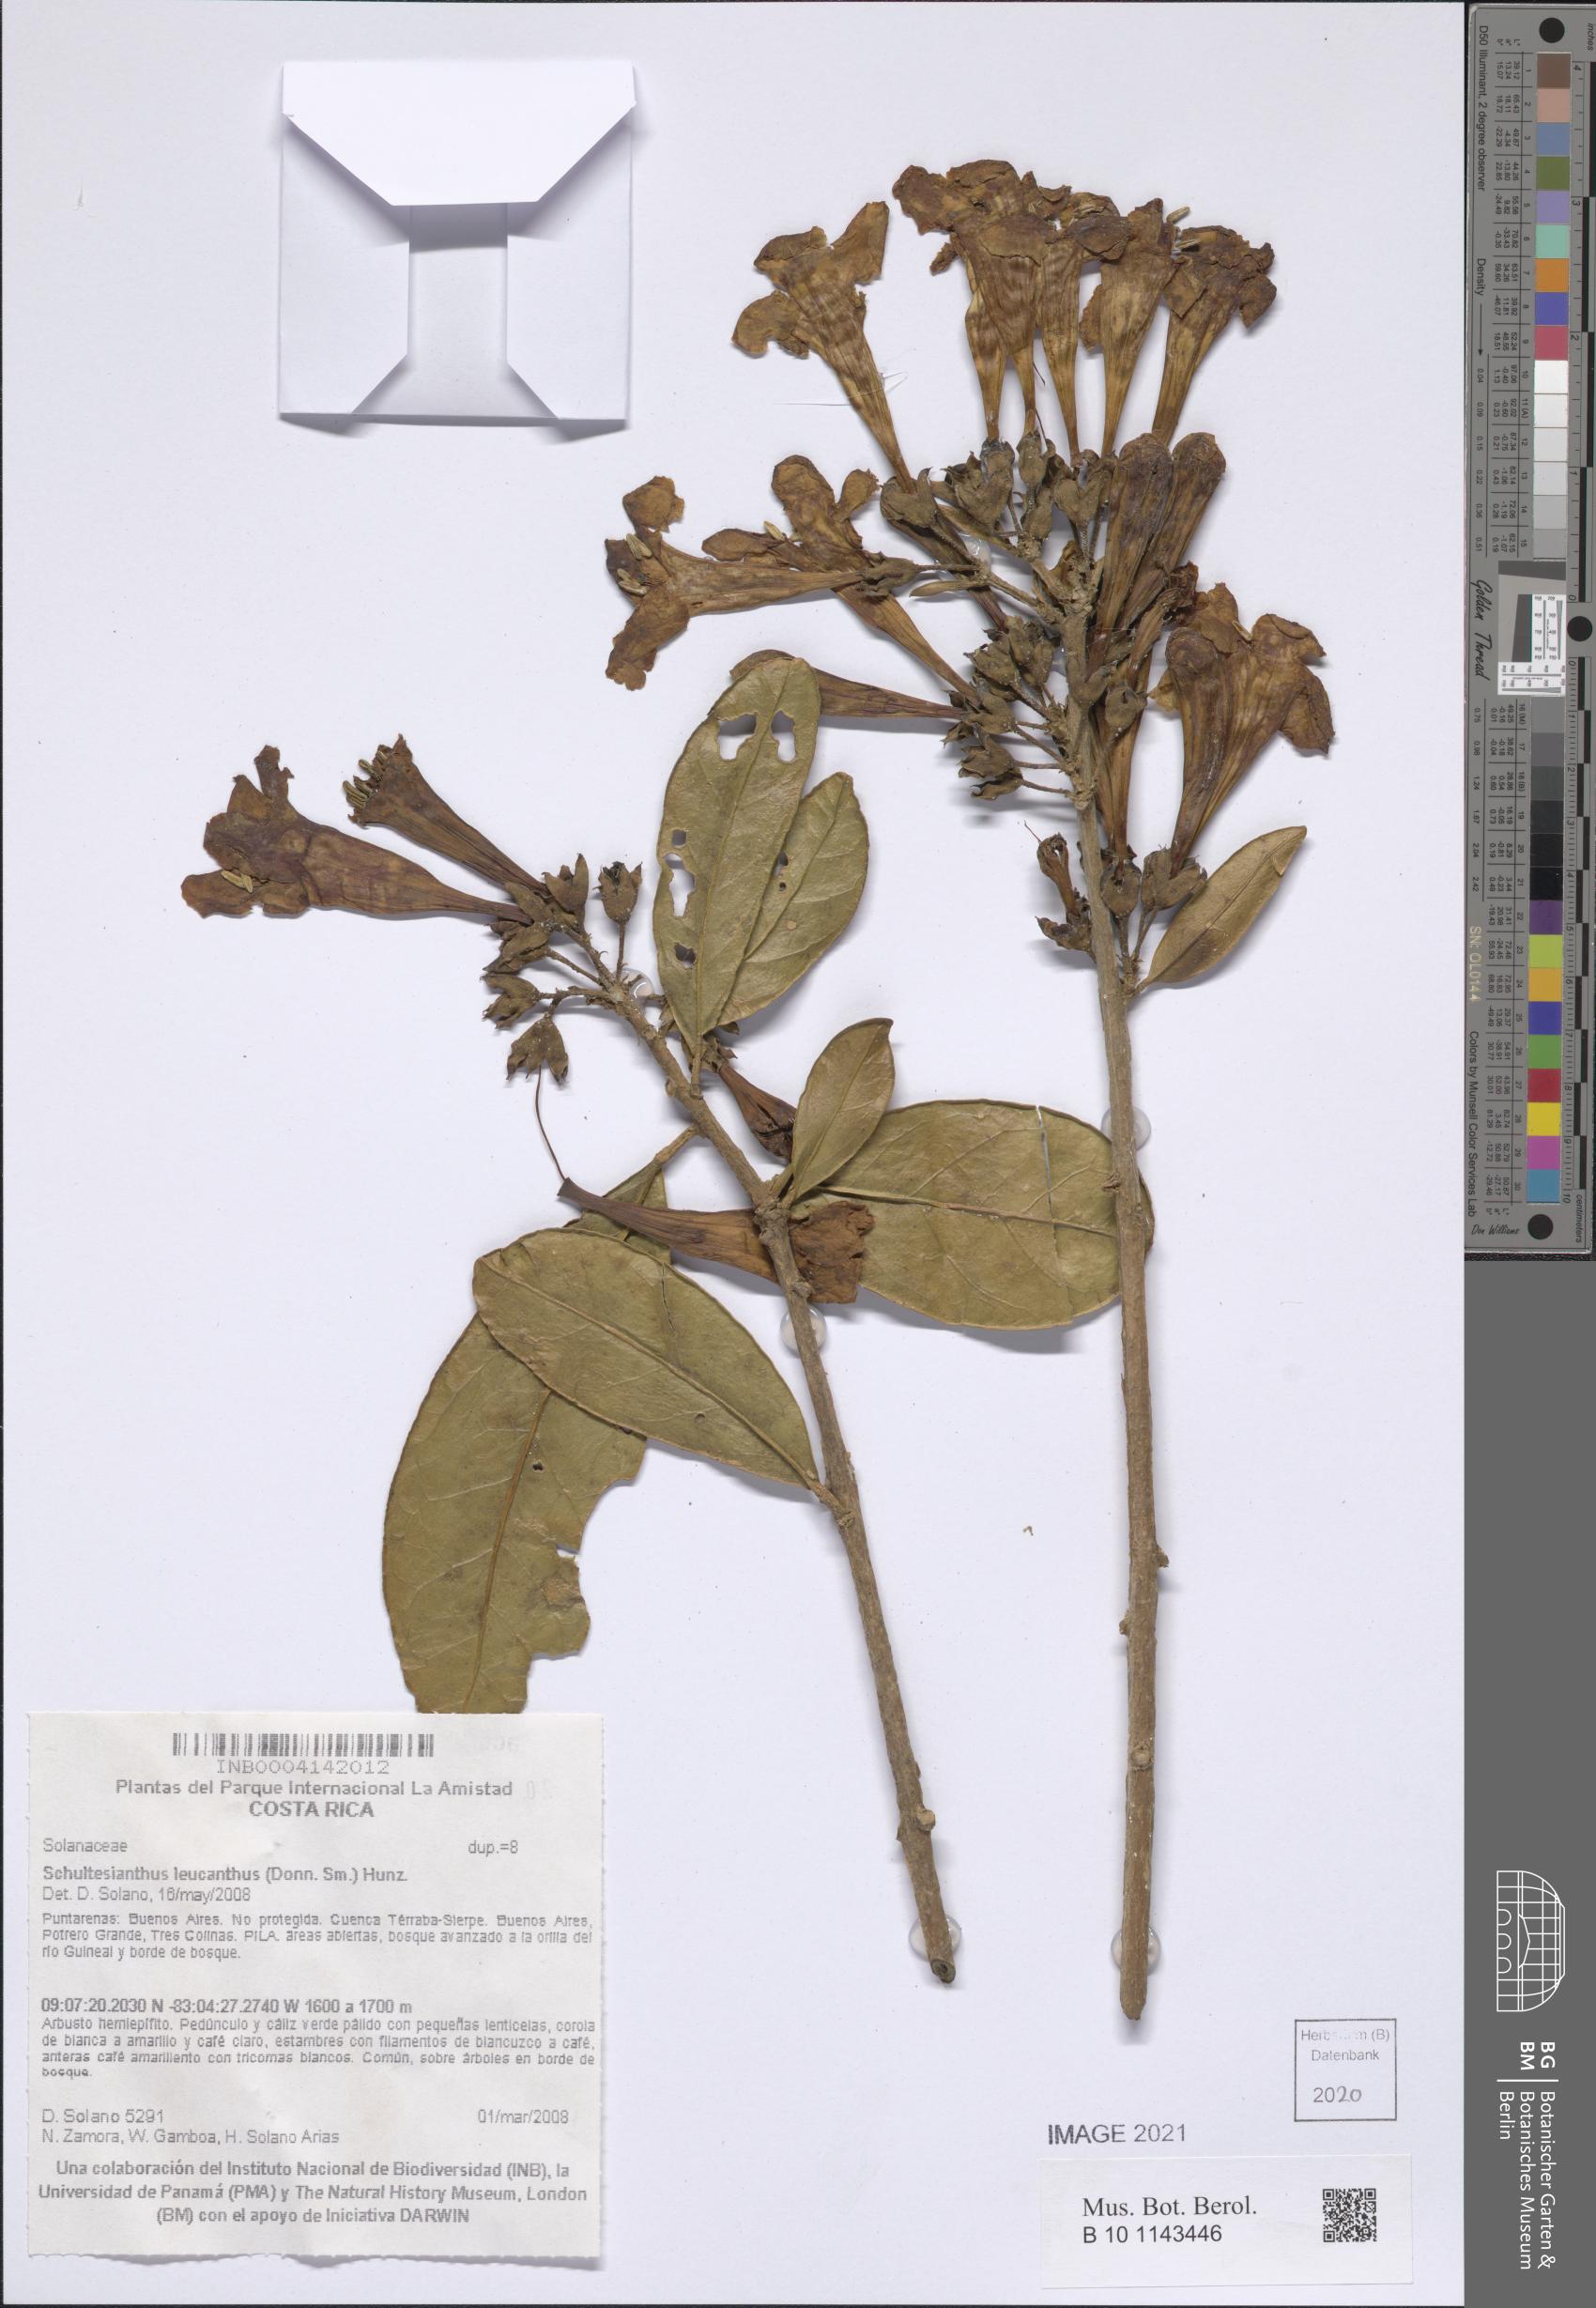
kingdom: Plantae
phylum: Tracheophyta
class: Magnoliopsida
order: Solanales
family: Solanaceae
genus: Schultesianthus
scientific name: Schultesianthus leucanthus
